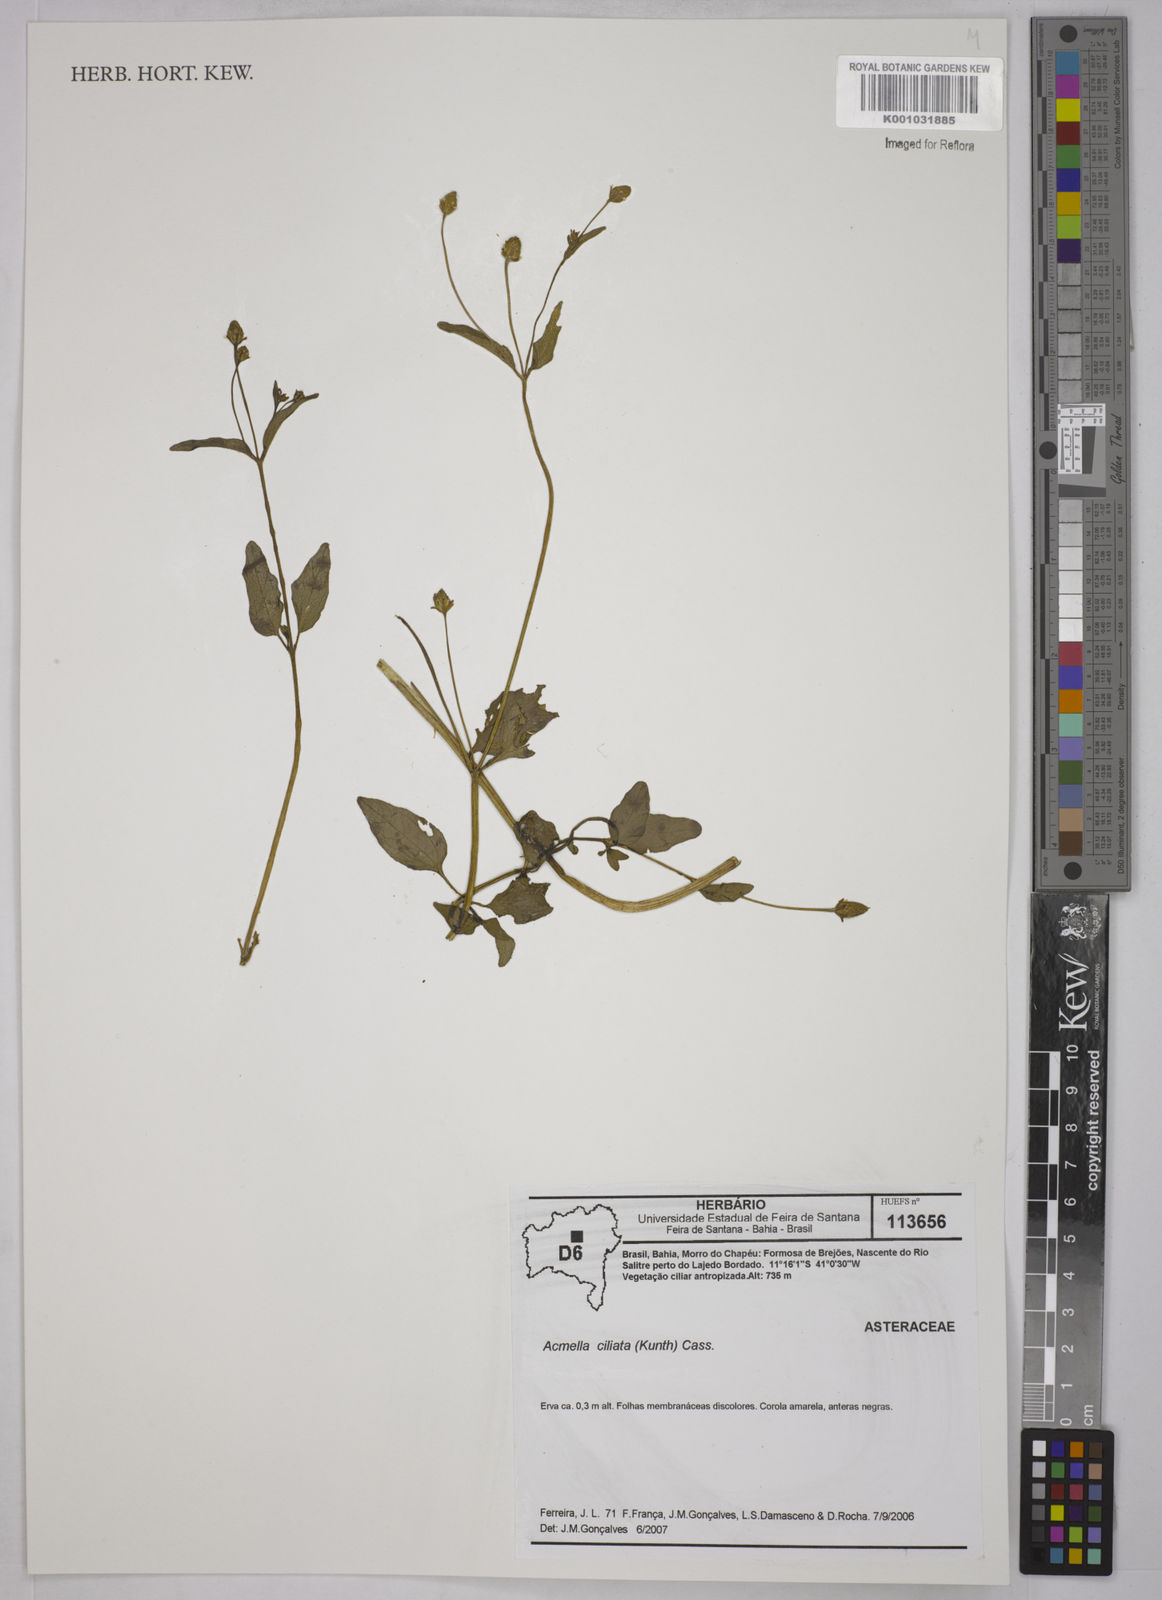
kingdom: Plantae
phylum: Tracheophyta
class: Magnoliopsida
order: Asterales
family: Asteraceae
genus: Acmella
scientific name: Acmella ciliata
